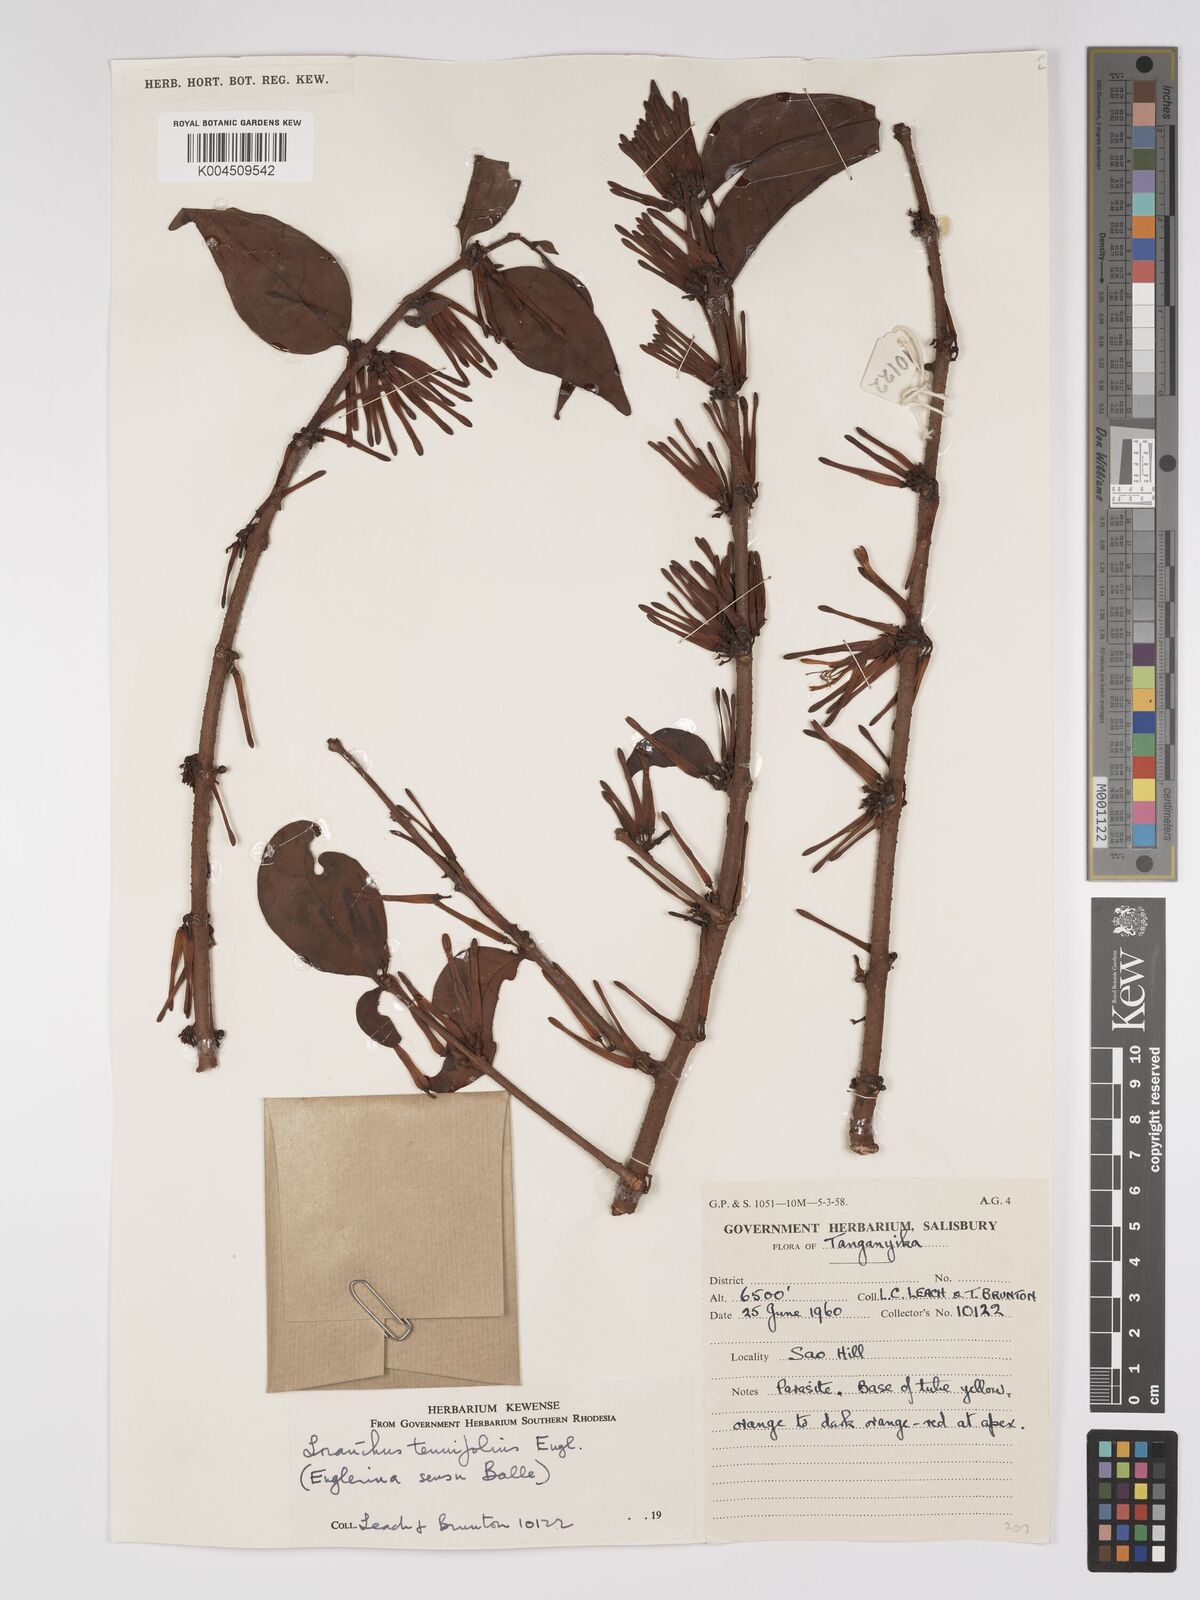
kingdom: Plantae
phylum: Tracheophyta
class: Magnoliopsida
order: Santalales
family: Loranthaceae
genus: Englerina
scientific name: Englerina inaequilatera
